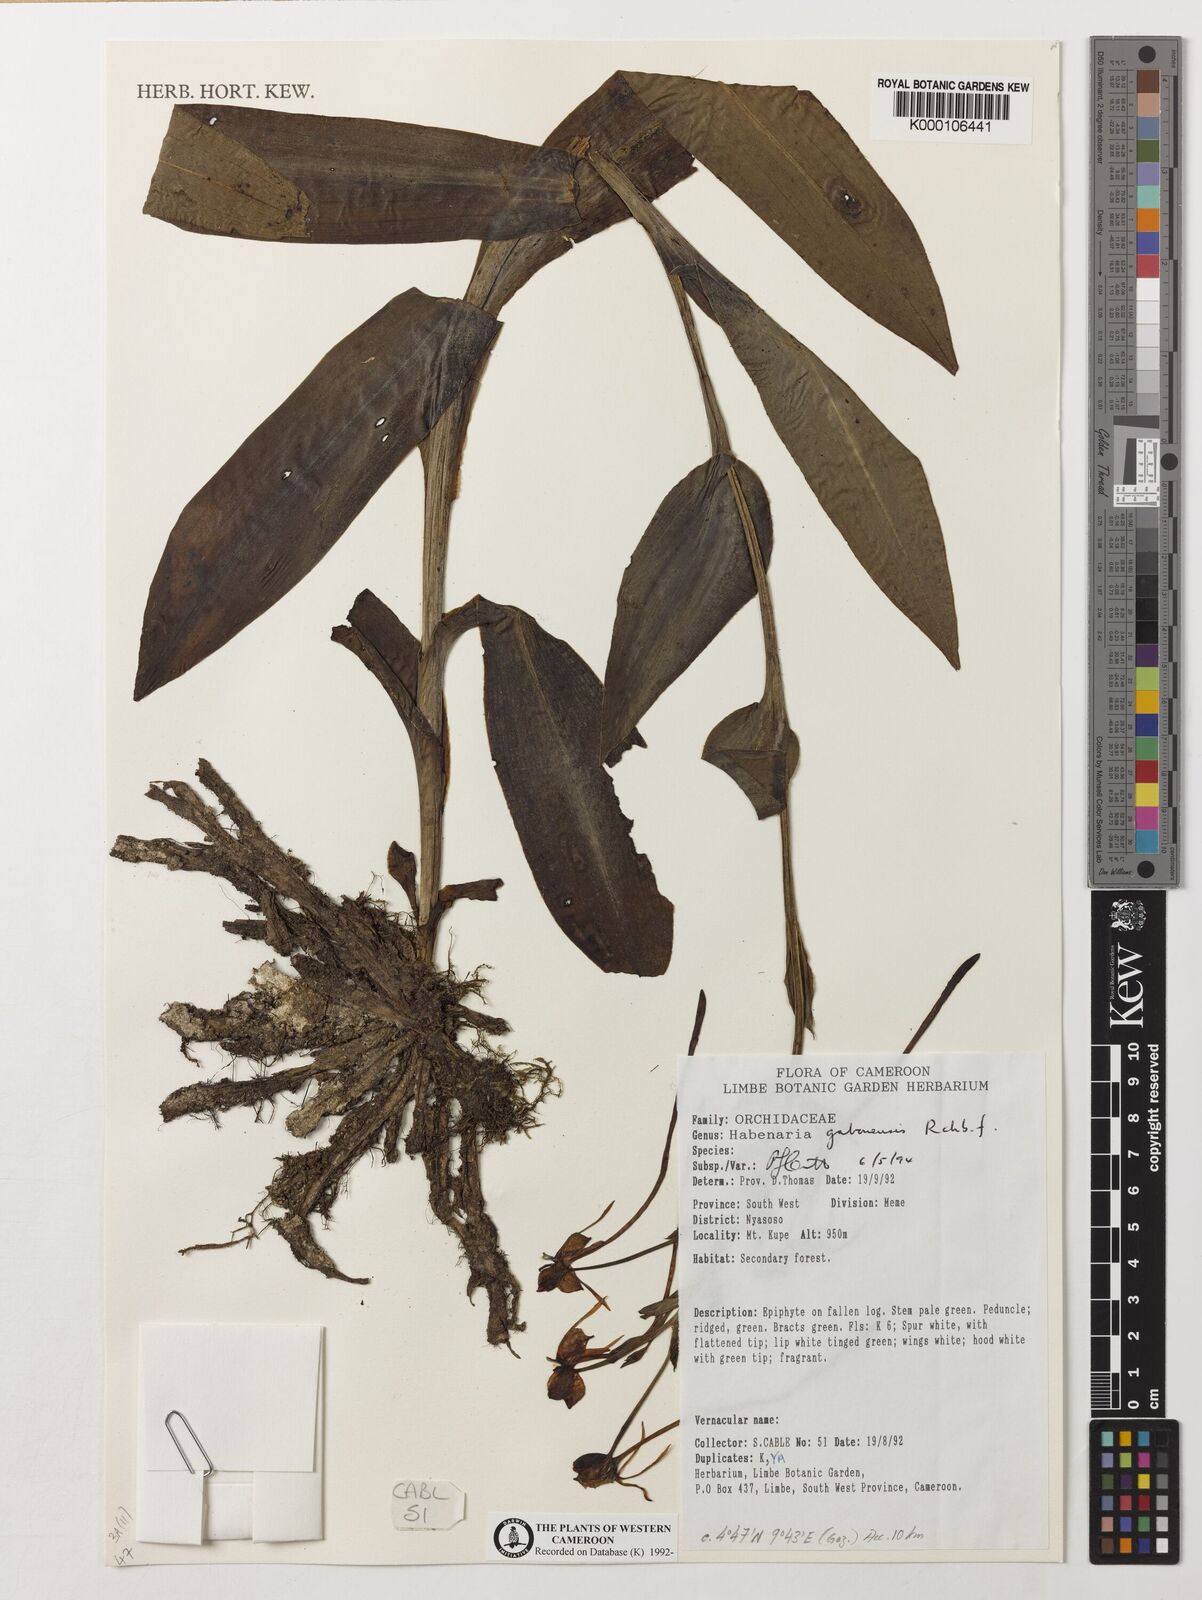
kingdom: Plantae
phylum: Tracheophyta
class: Liliopsida
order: Asparagales
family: Orchidaceae
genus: Habenaria
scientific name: Habenaria procera
